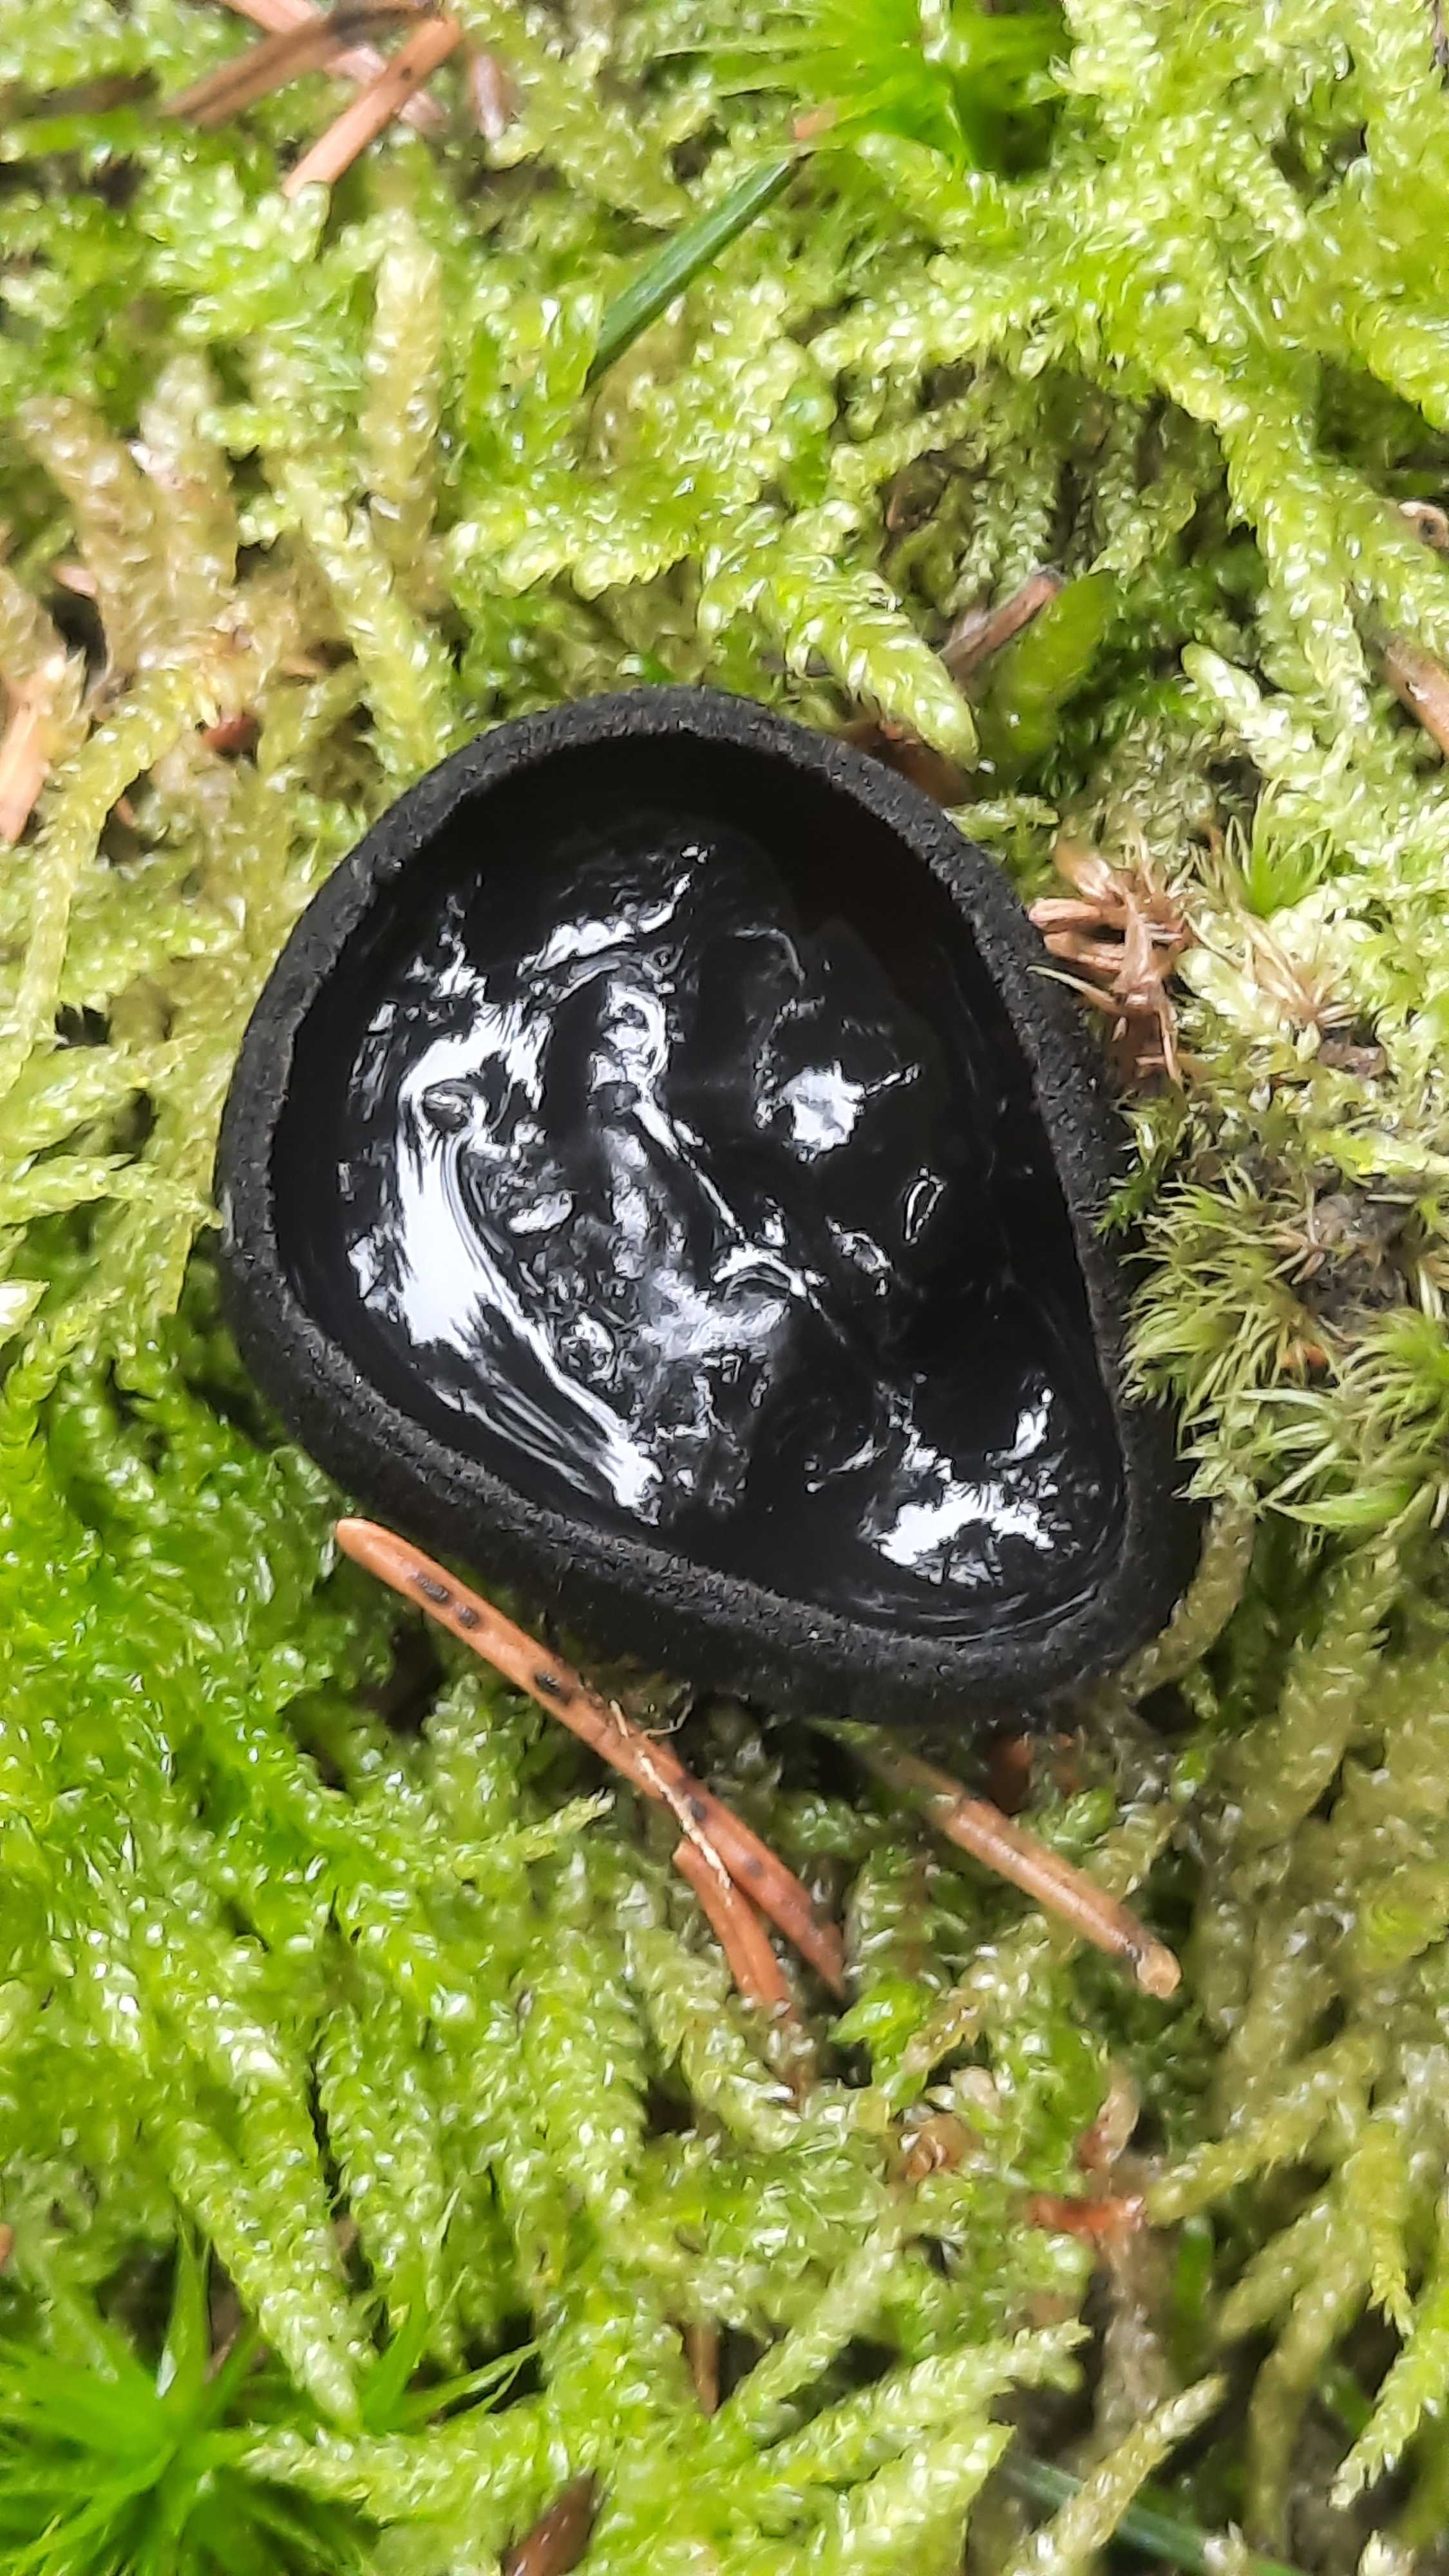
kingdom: Fungi
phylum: Ascomycota
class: Pezizomycetes
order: Pezizales
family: Sarcosomataceae
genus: Pseudoplectania
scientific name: Pseudoplectania nigrella
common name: almindelig sortbæger
